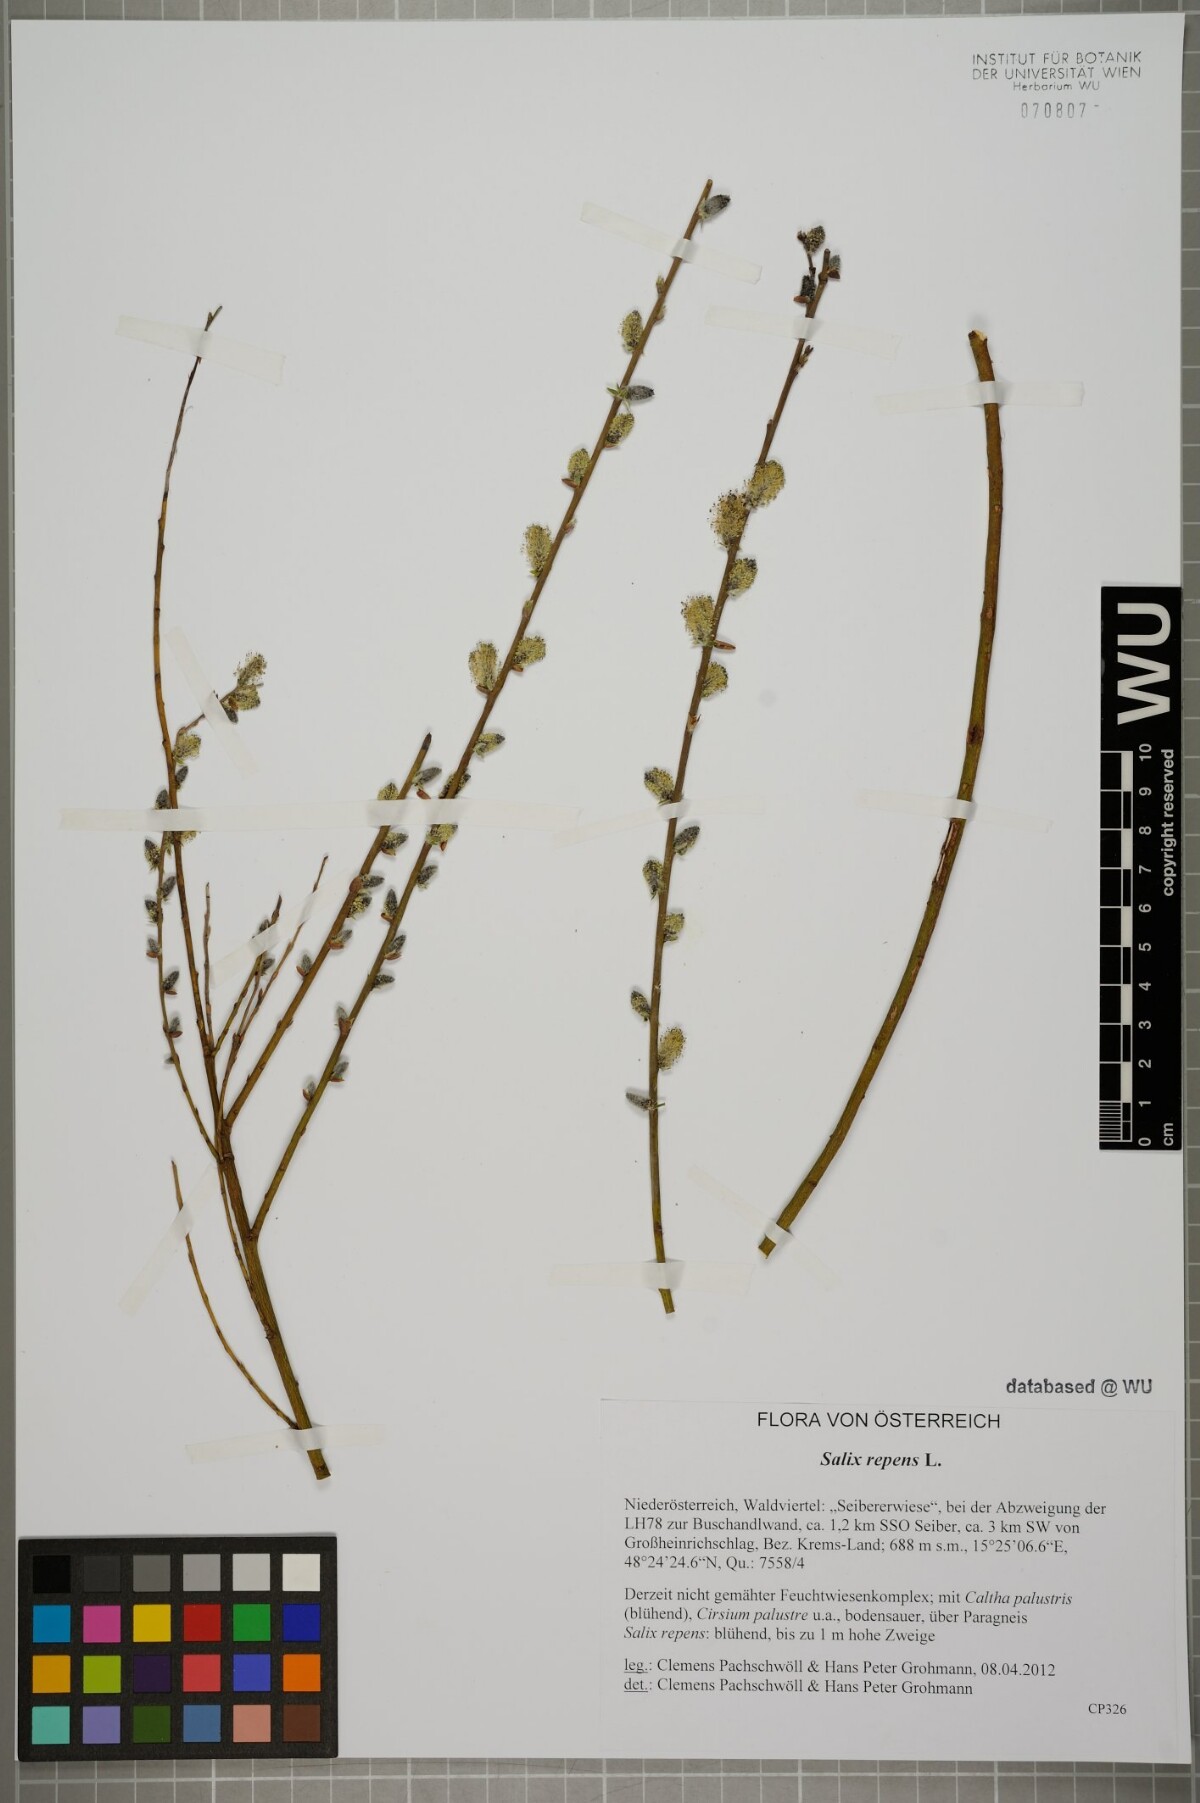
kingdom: Plantae
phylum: Tracheophyta
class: Magnoliopsida
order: Malpighiales
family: Salicaceae
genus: Salix
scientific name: Salix repens
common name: Creeping willow
